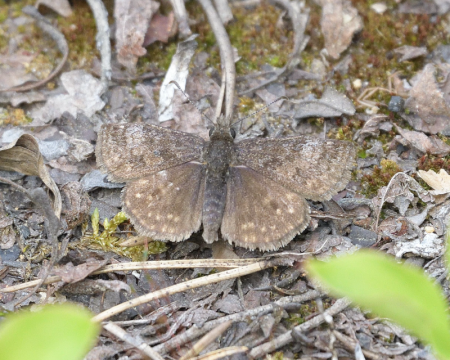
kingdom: Animalia
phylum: Arthropoda
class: Insecta
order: Lepidoptera
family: Hesperiidae
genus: Erynnis
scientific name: Erynnis icelus
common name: Dreamy Duskywing
